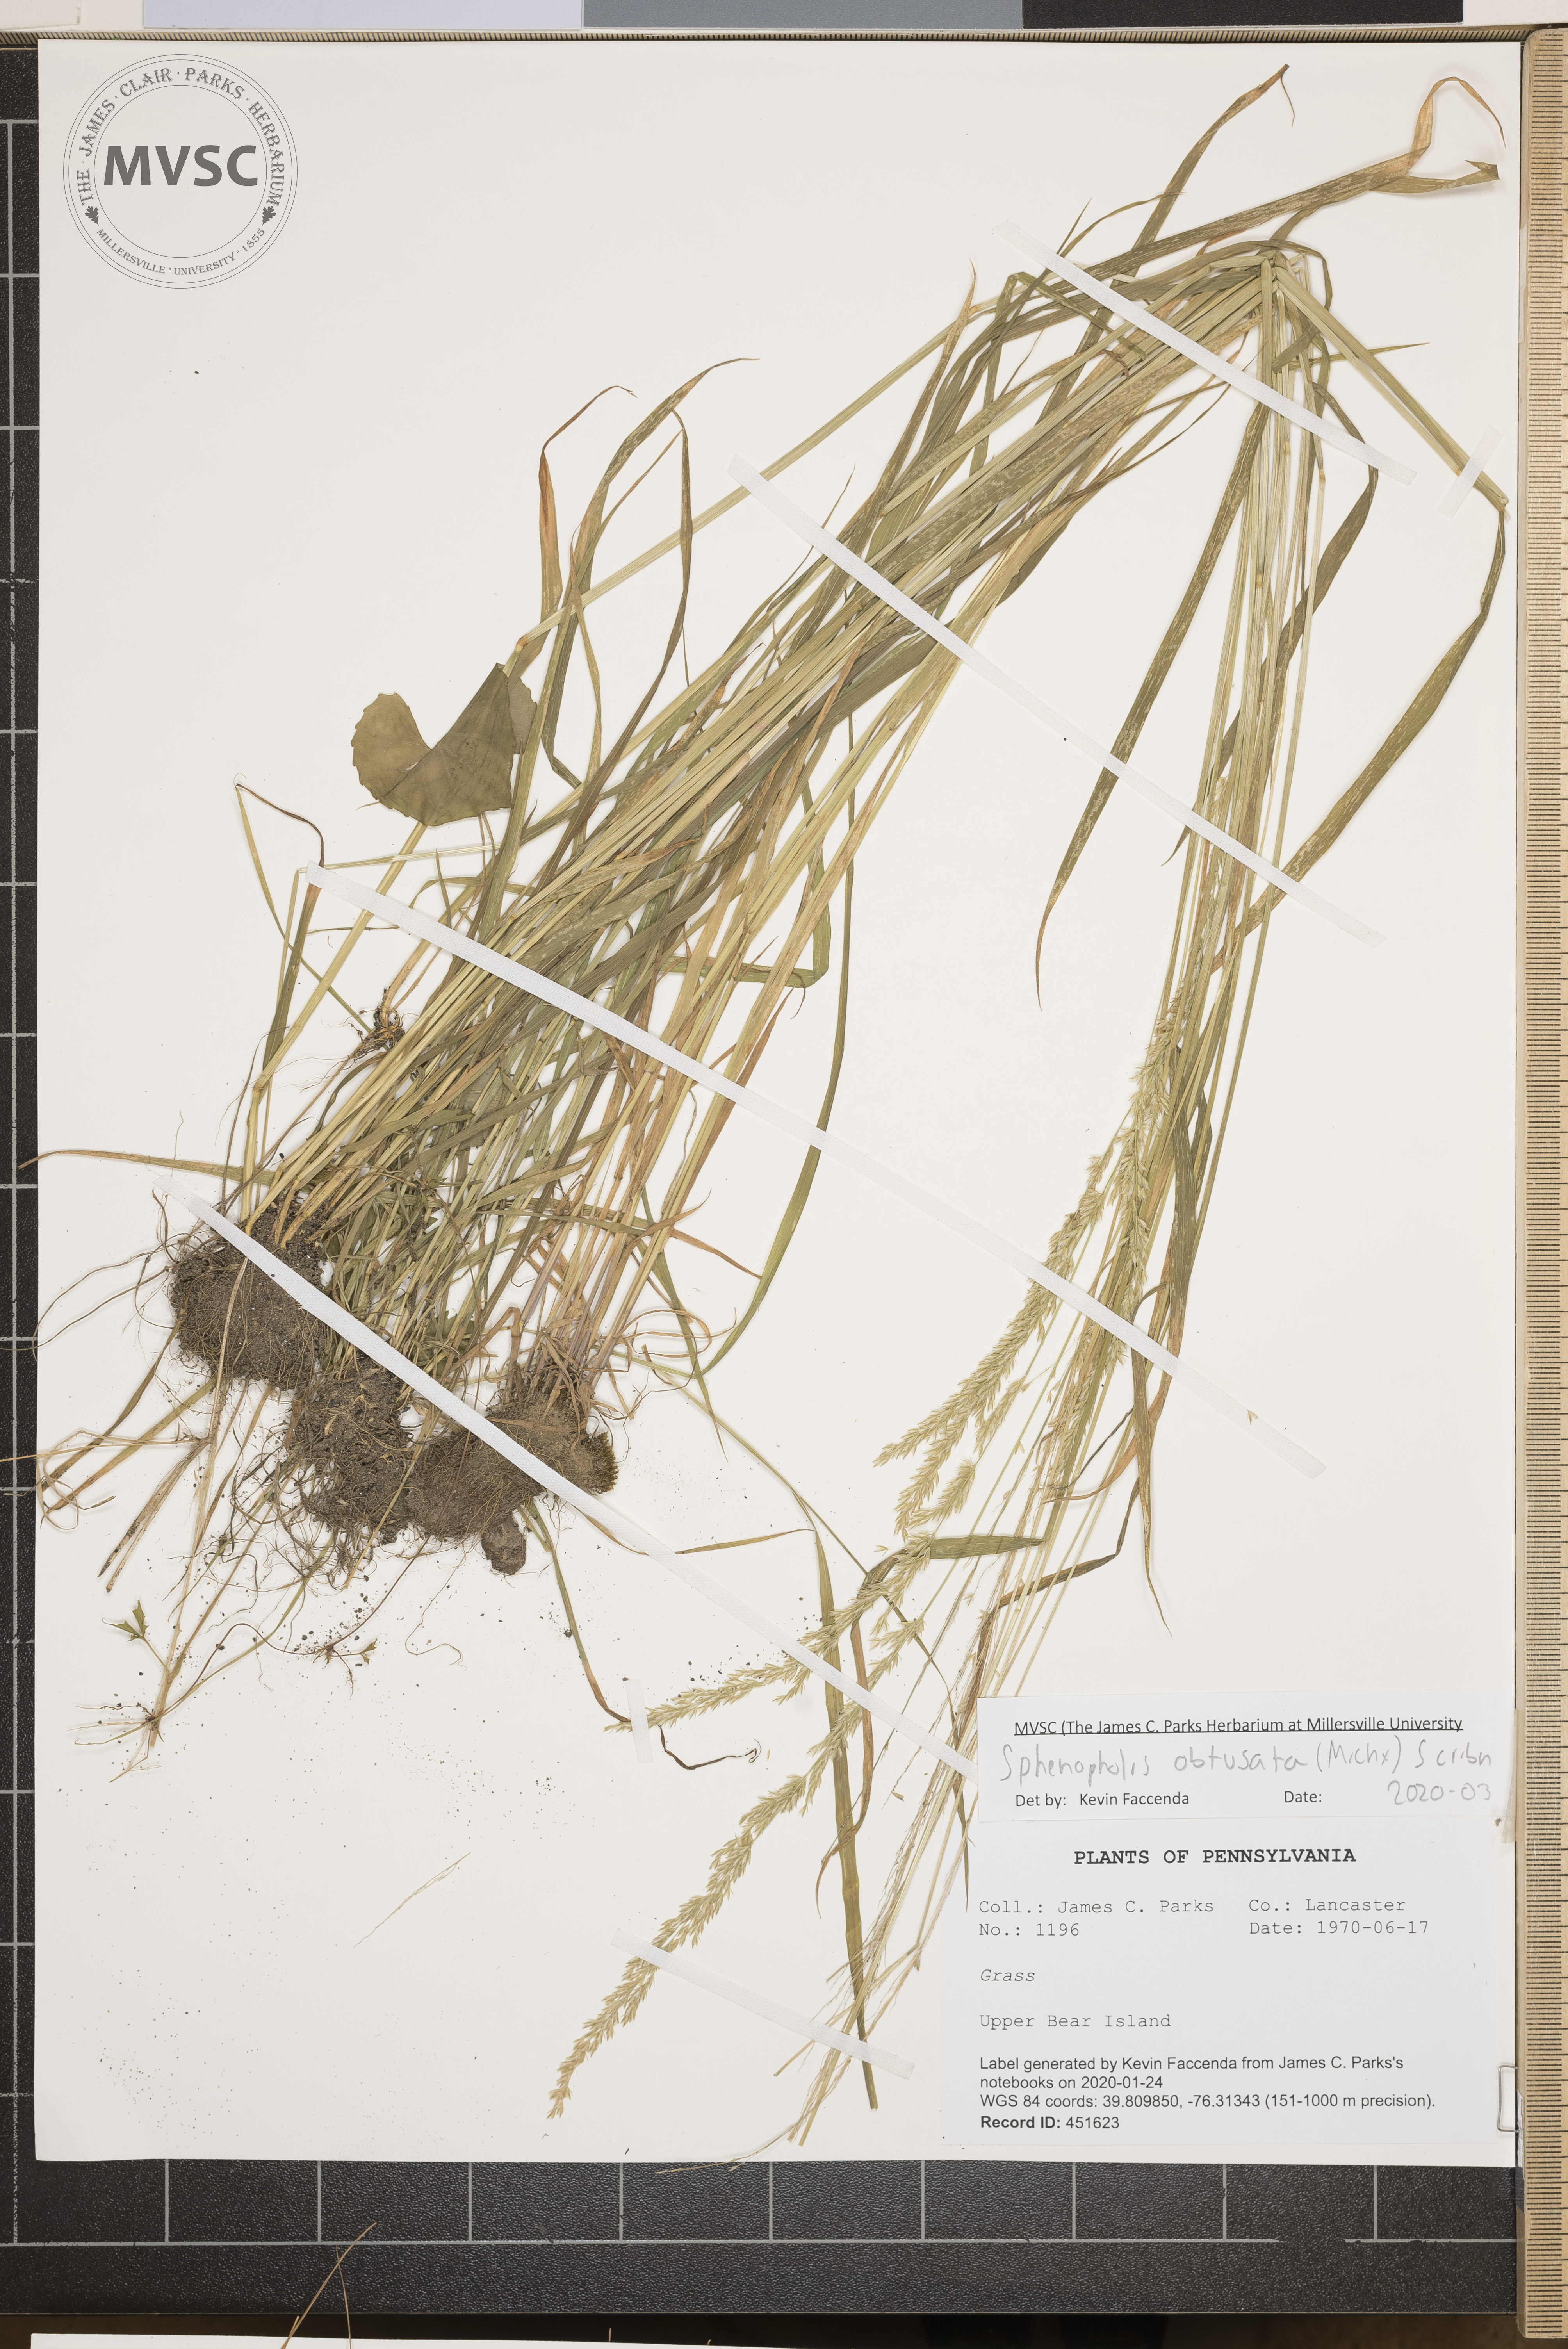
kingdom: Plantae
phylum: Tracheophyta
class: Liliopsida
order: Poales
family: Poaceae
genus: Sphenopholis
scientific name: Sphenopholis obtusata
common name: Prairie grass
